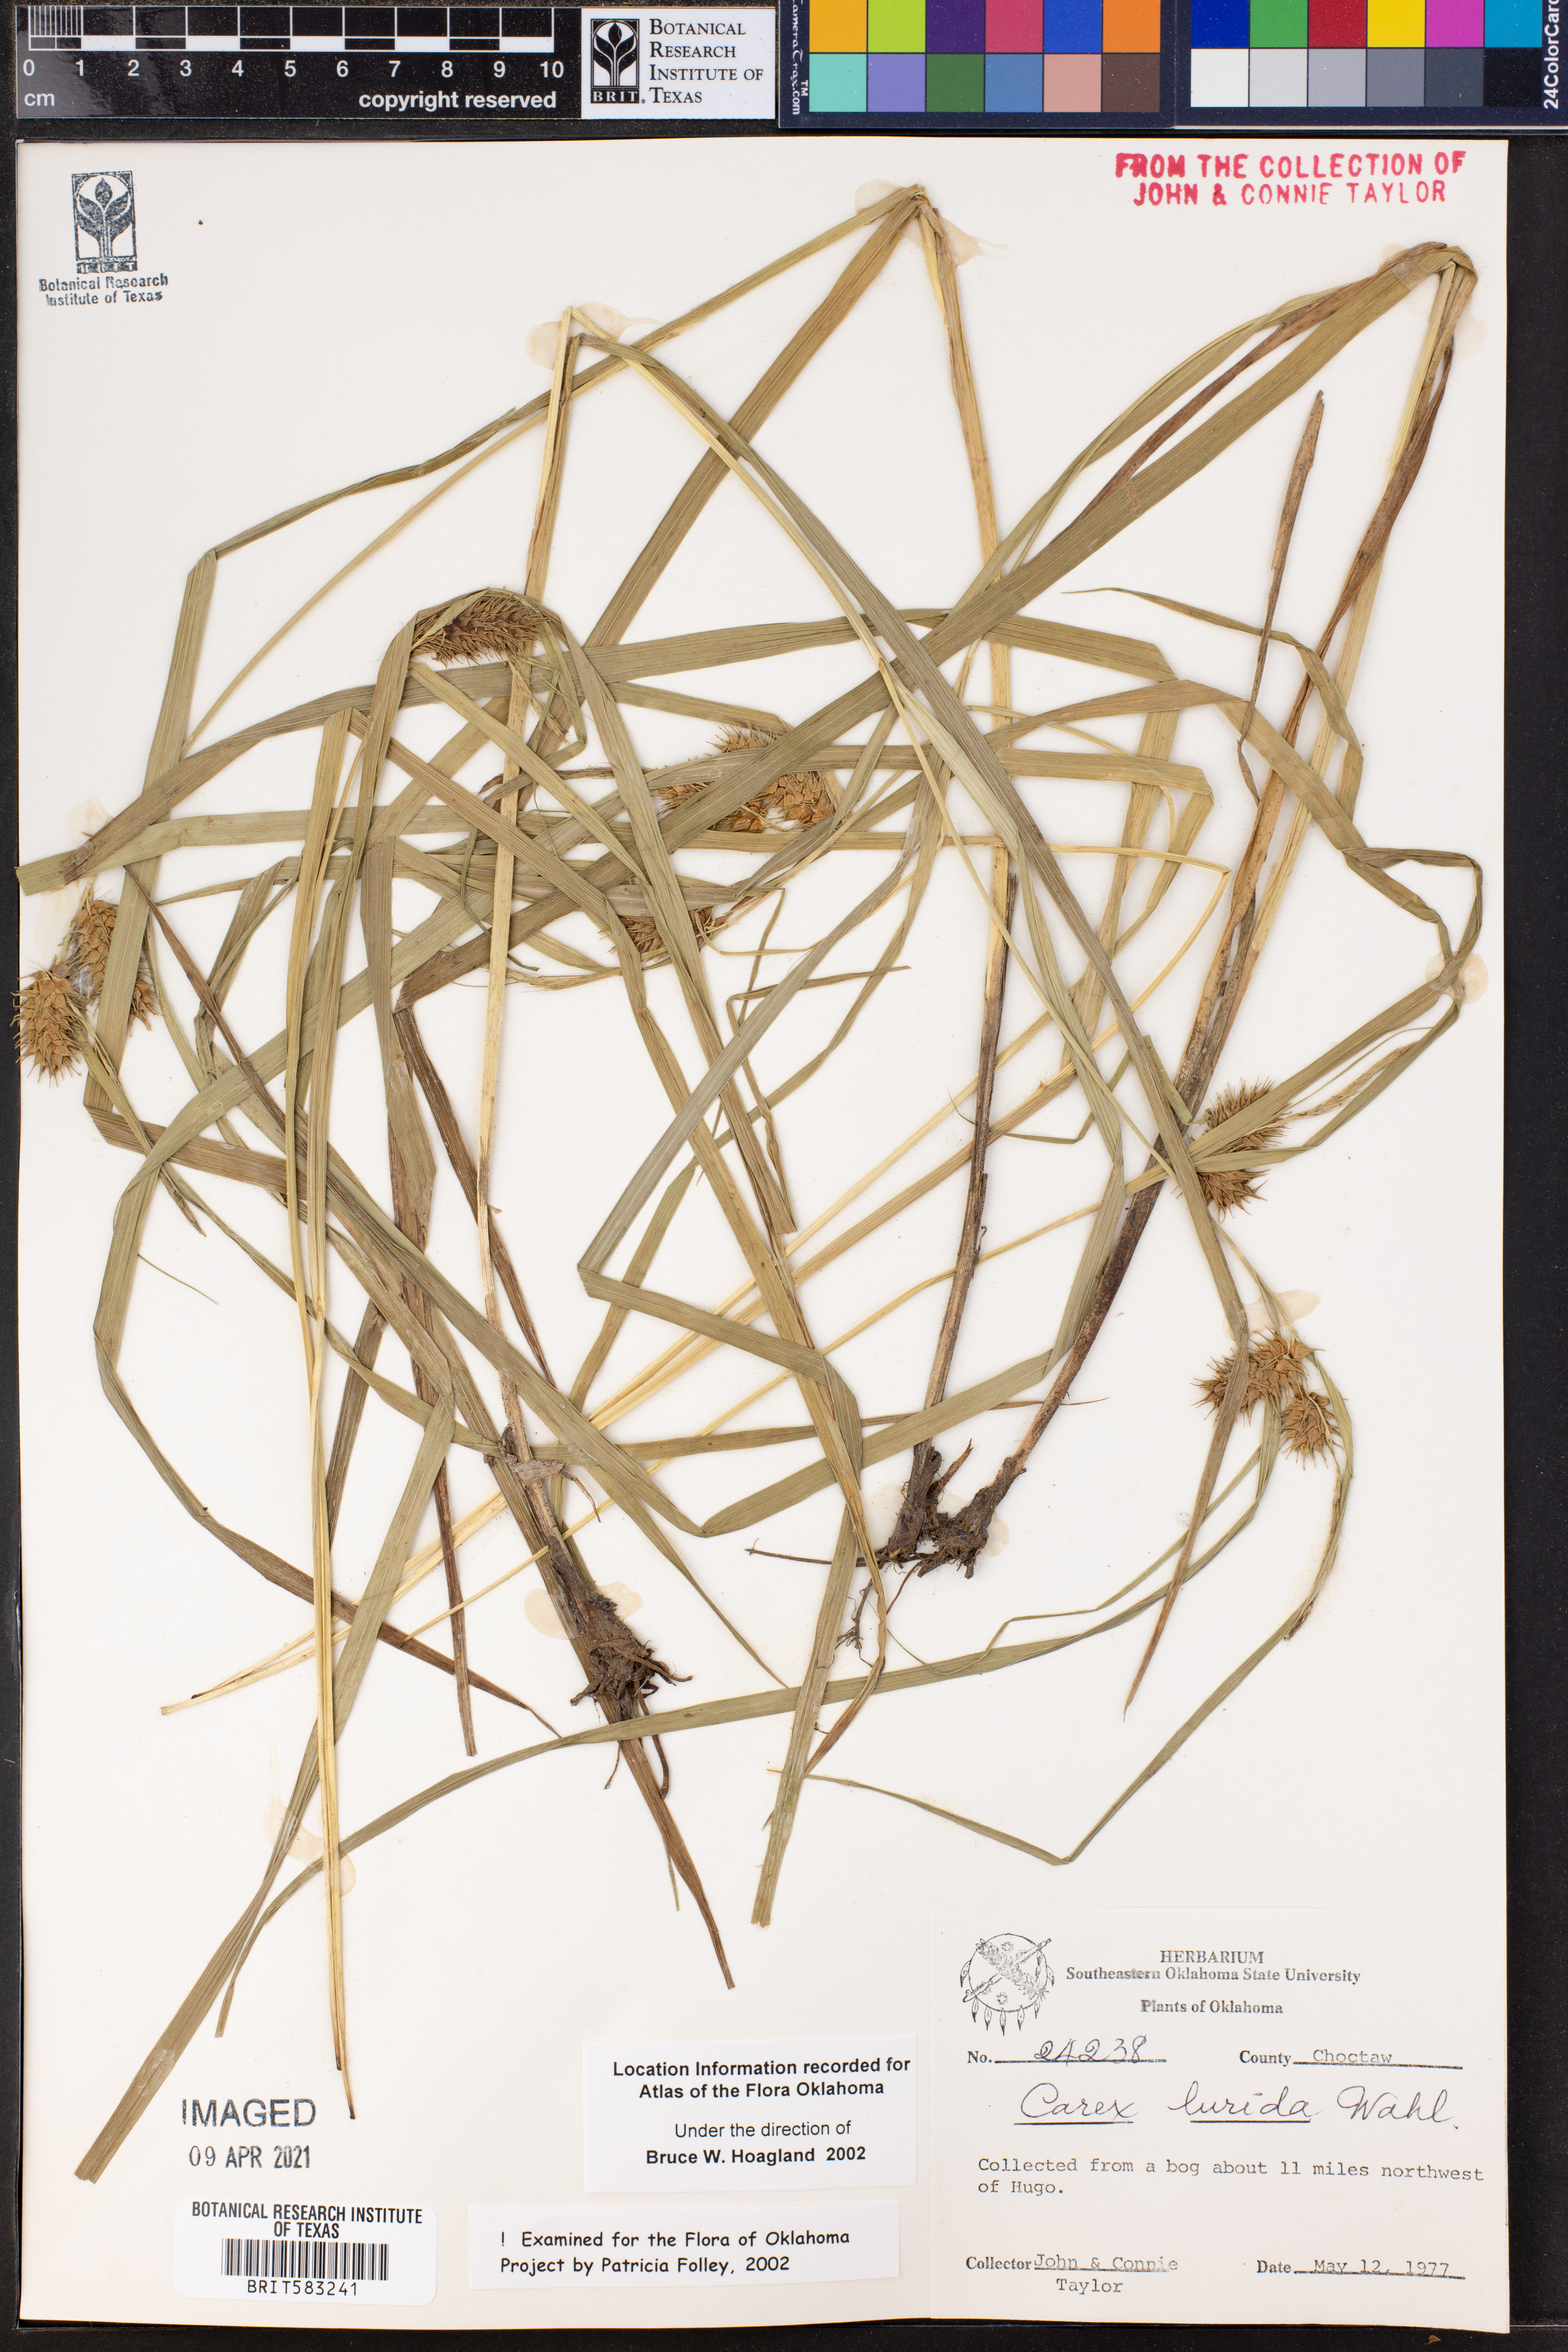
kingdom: Plantae
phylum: Tracheophyta
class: Liliopsida
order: Poales
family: Cyperaceae
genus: Carex
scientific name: Carex lurida
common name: Sallow sedge
